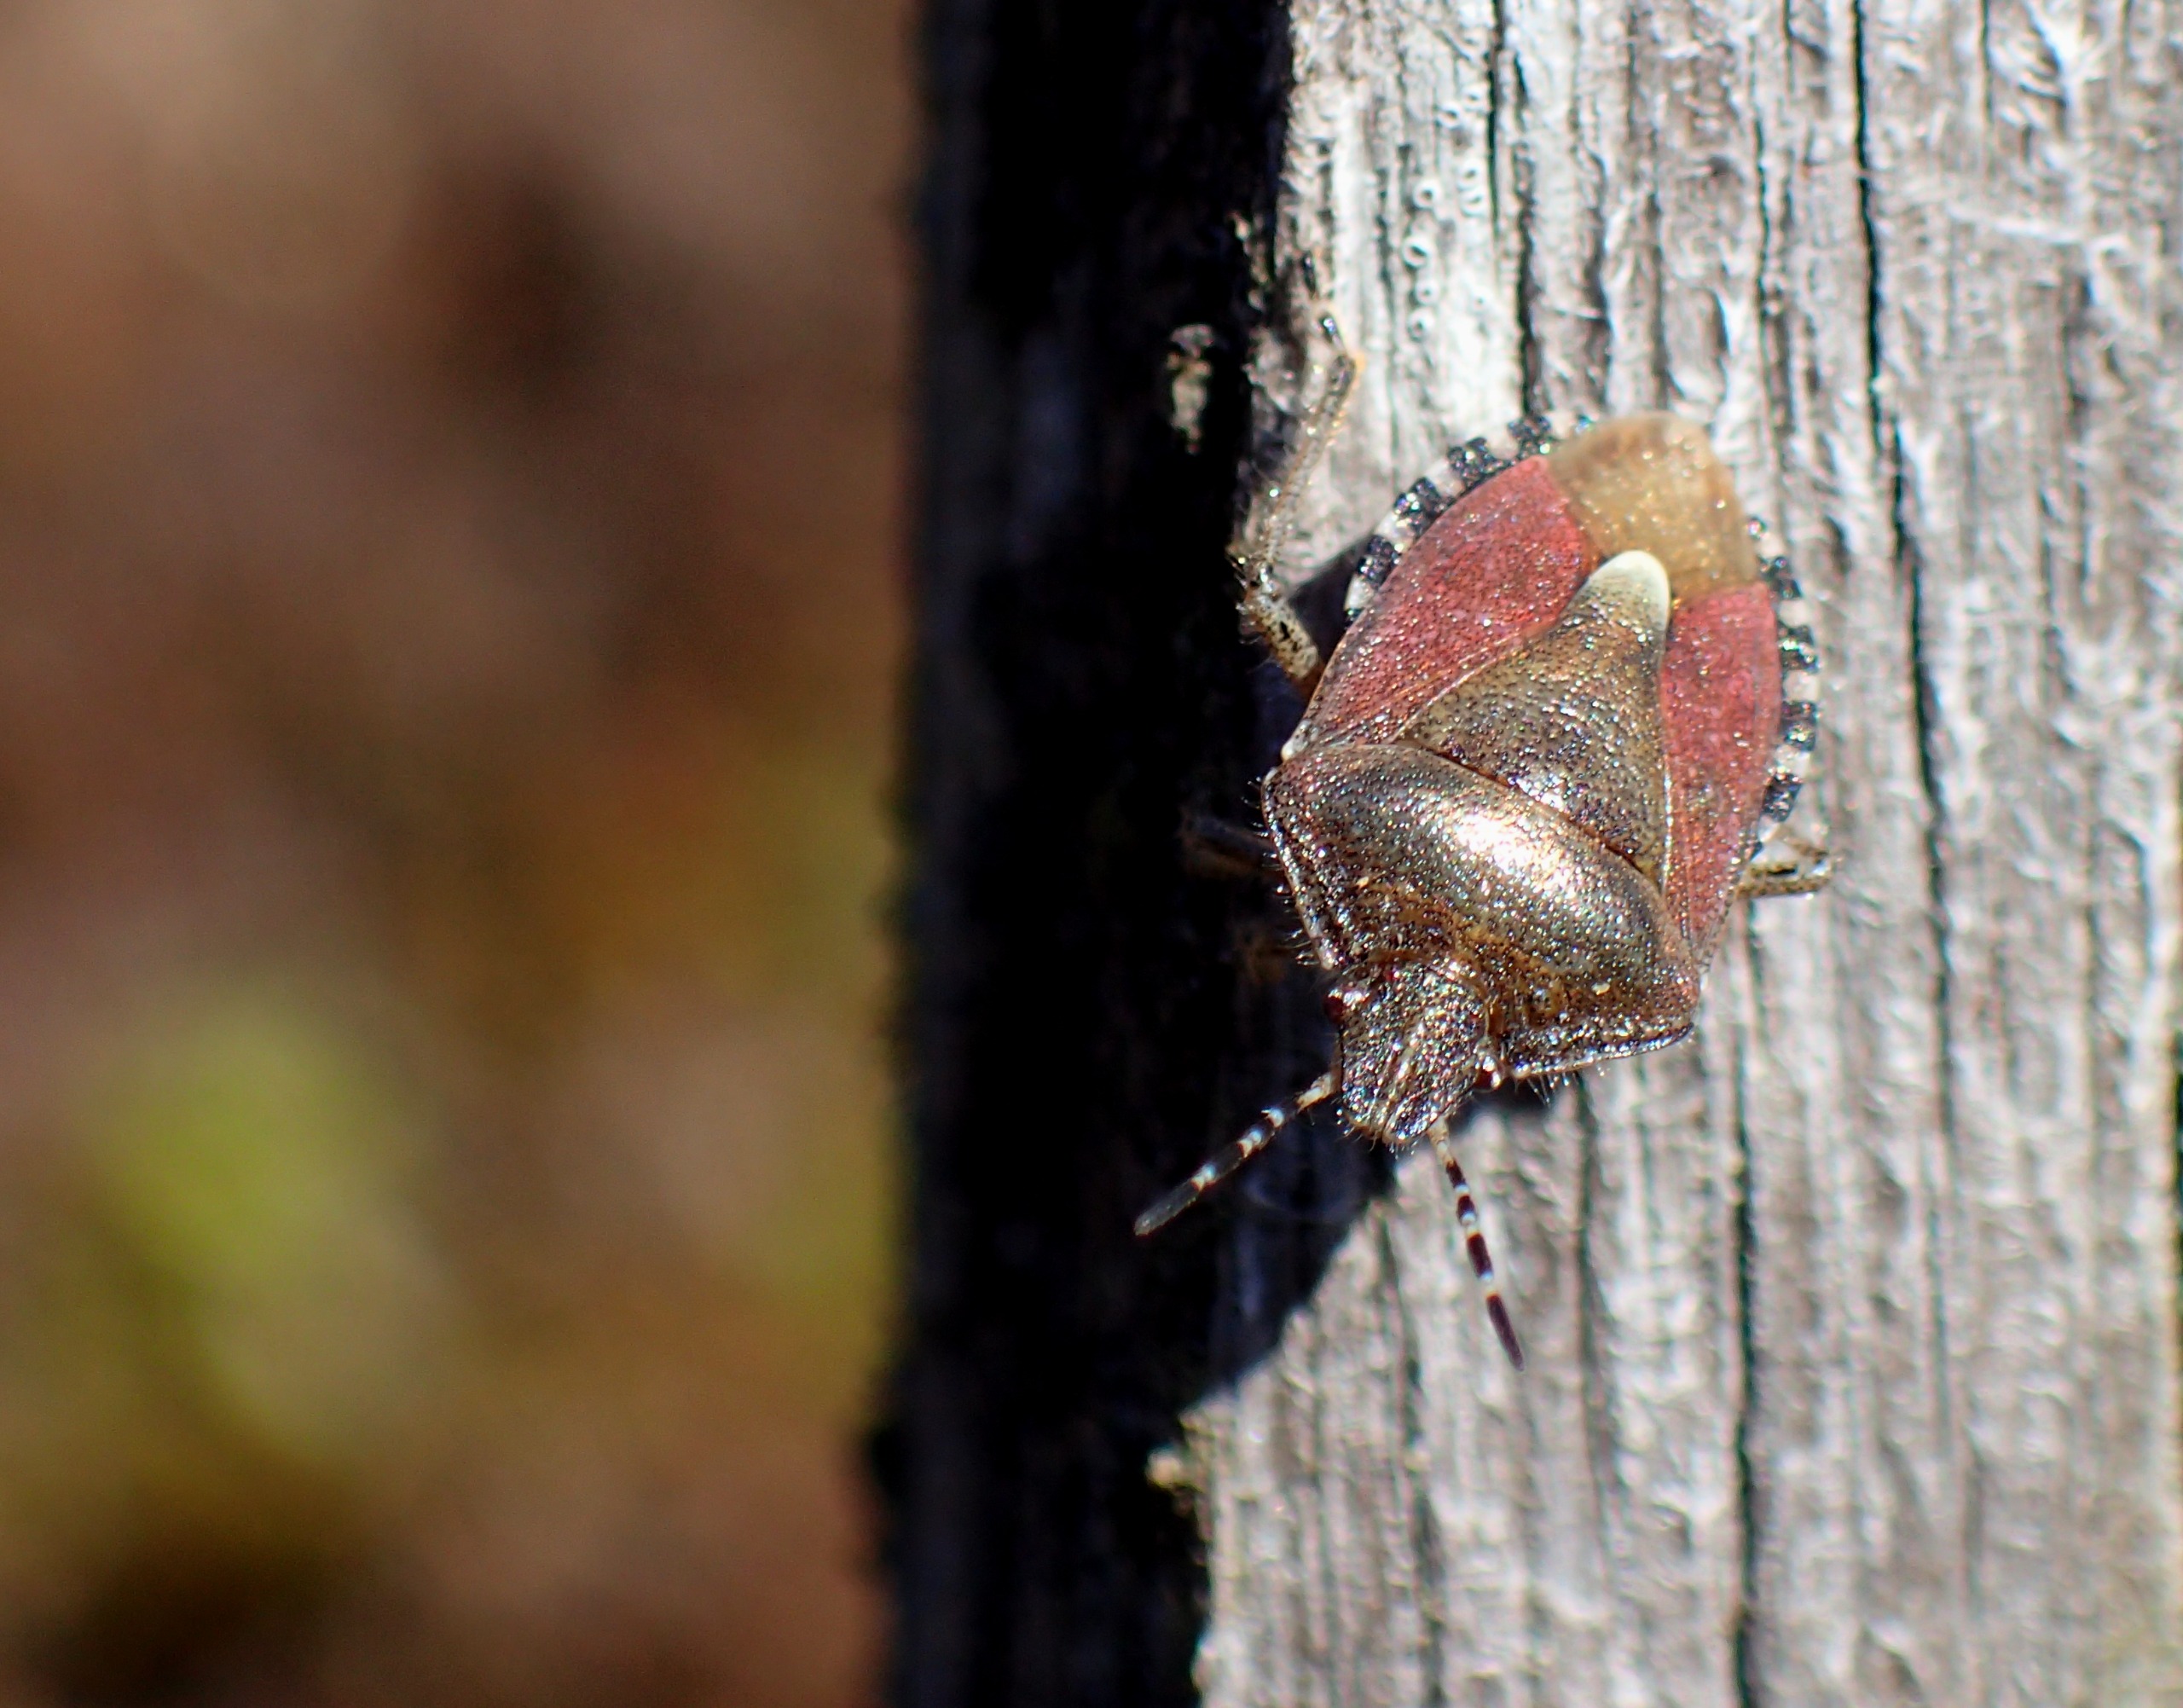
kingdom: Animalia
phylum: Arthropoda
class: Insecta
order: Hemiptera
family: Pentatomidae
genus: Dolycoris
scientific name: Dolycoris baccarum
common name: Almindelig bærtæge
